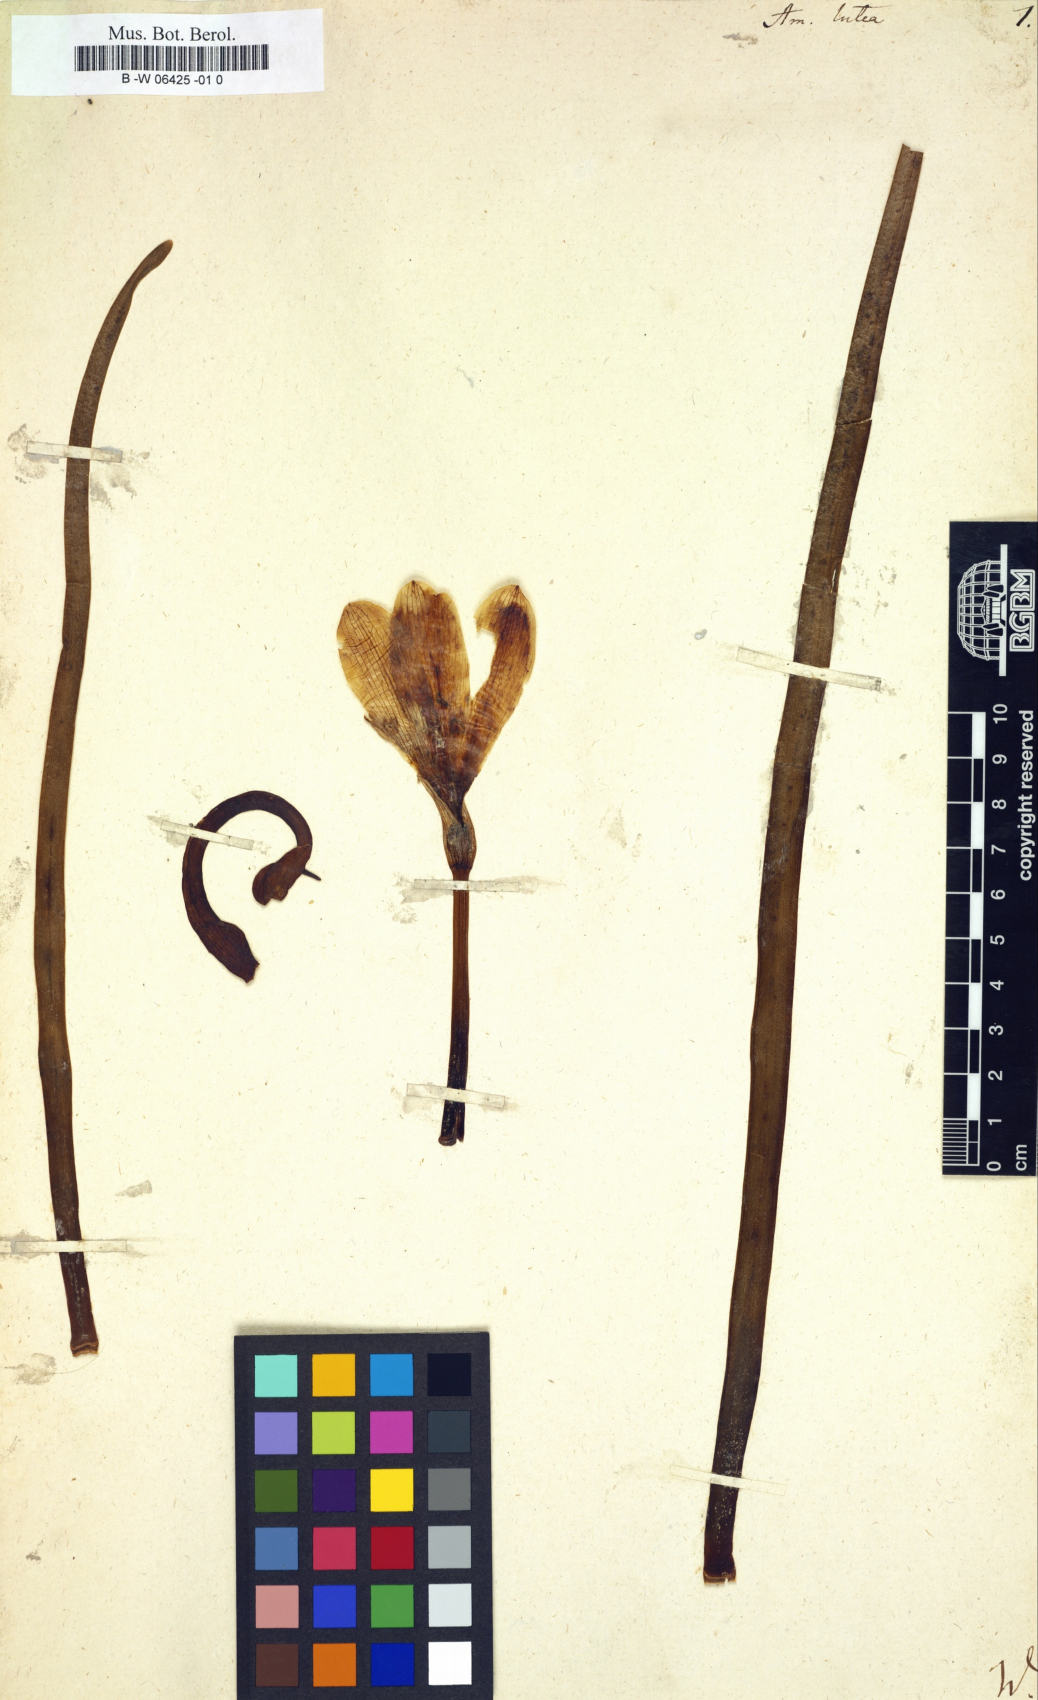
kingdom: Plantae
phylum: Tracheophyta
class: Liliopsida
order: Asparagales
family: Amaryllidaceae
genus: Amaryllis
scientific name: Amaryllis lutea
